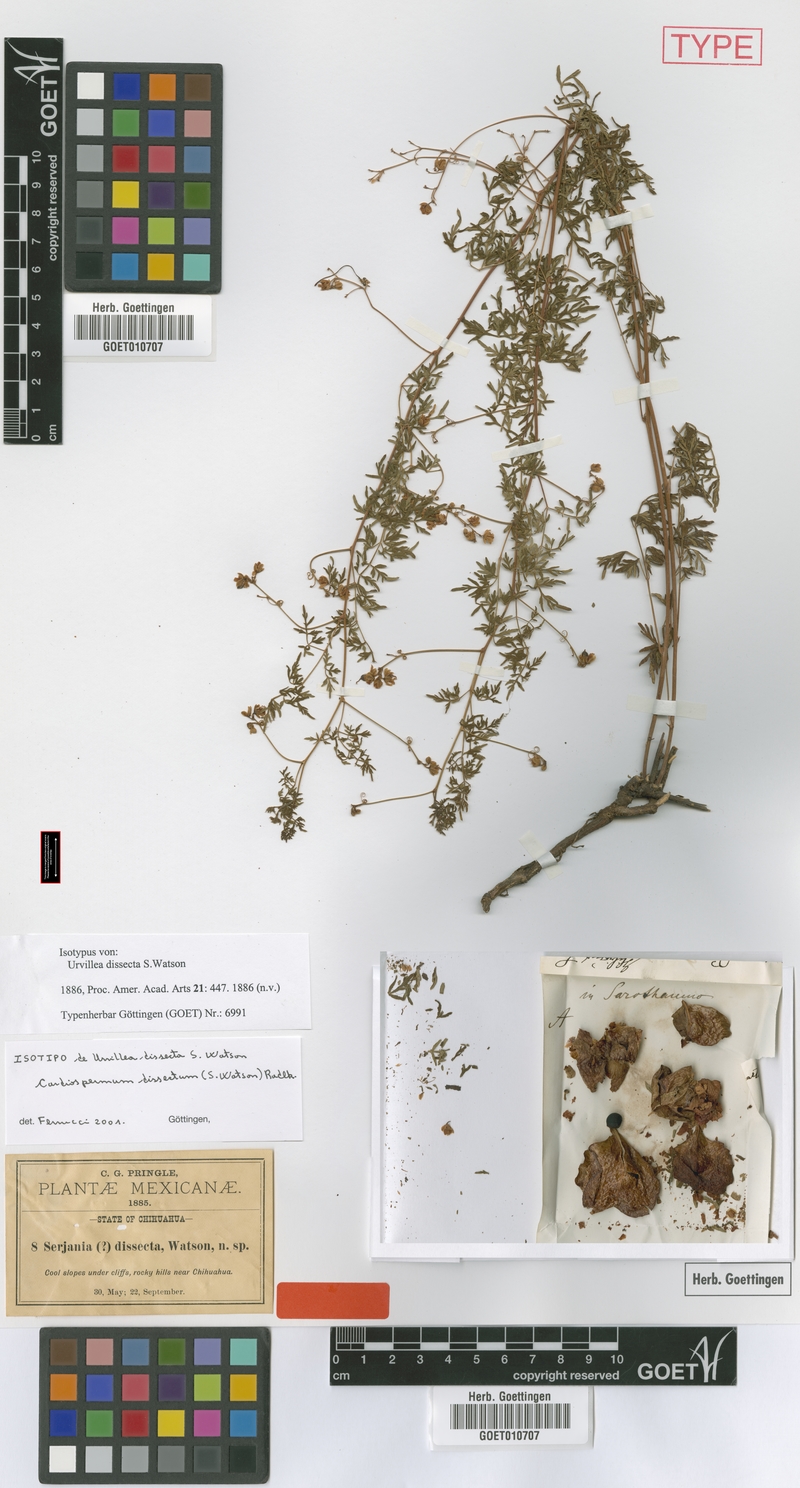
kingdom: Plantae
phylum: Tracheophyta
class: Magnoliopsida
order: Sapindales
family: Sapindaceae
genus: Serjania
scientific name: Serjania dissecta
